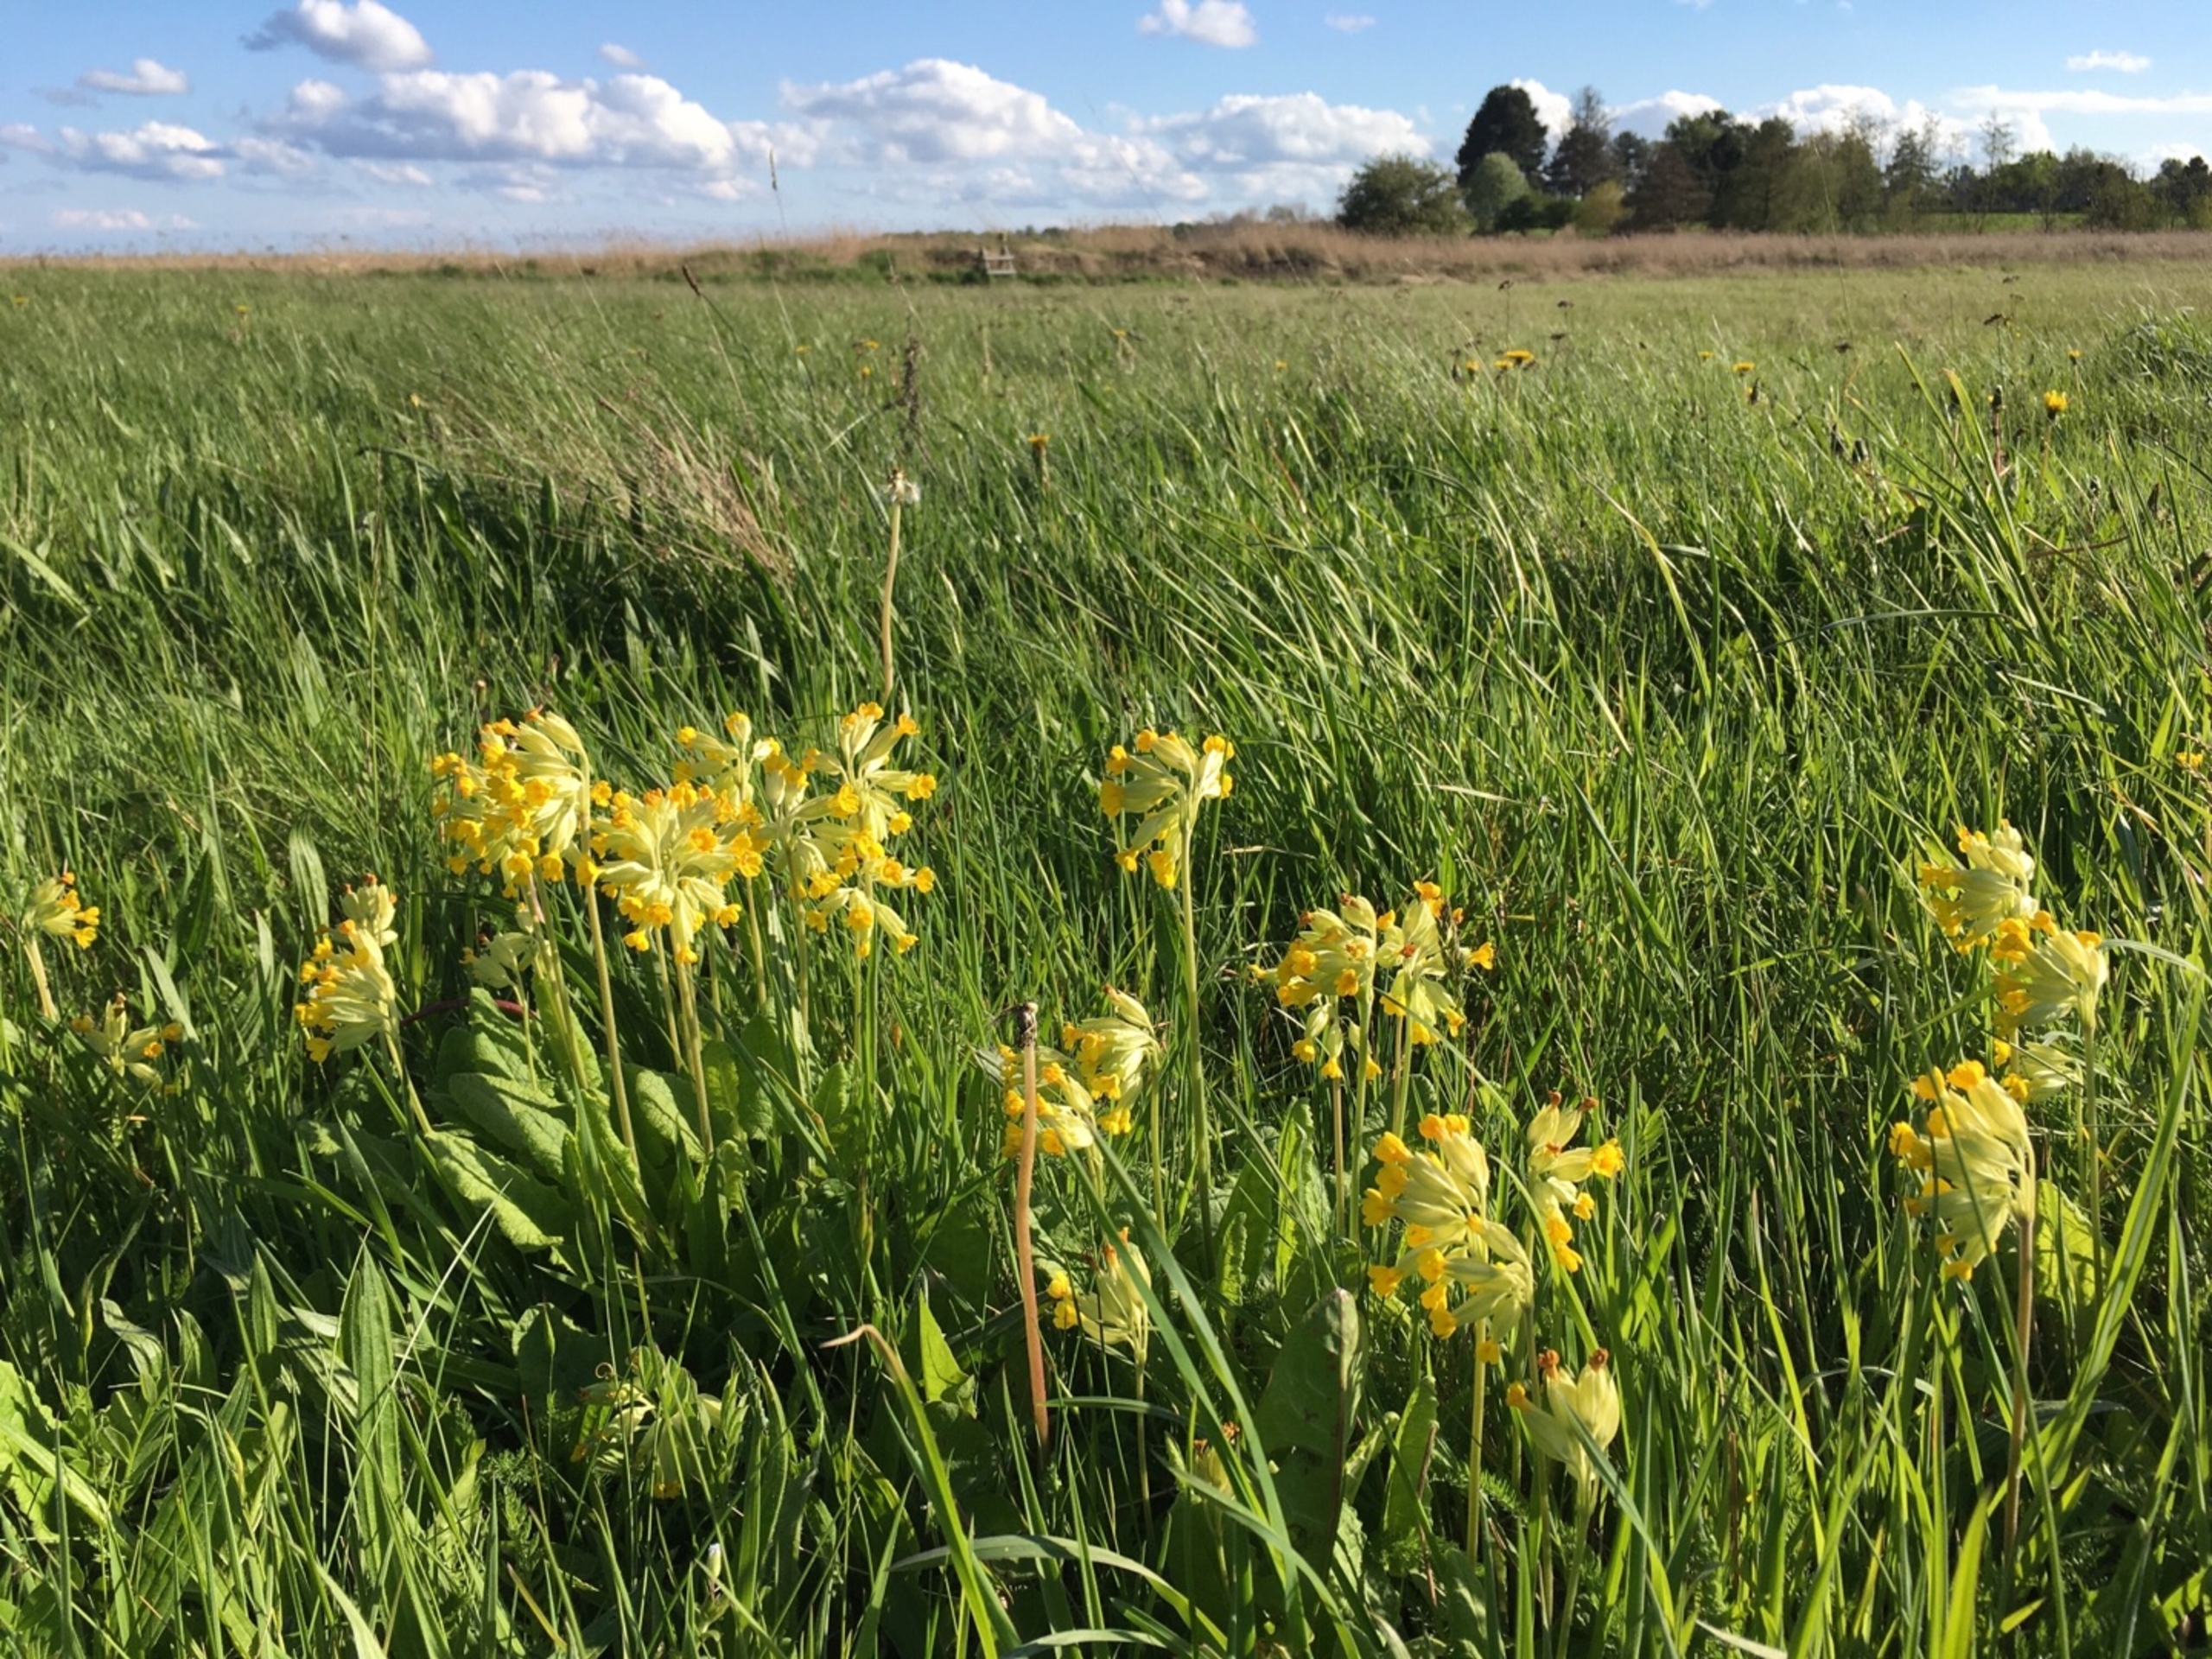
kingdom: Plantae
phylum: Tracheophyta
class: Magnoliopsida
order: Ericales
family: Primulaceae
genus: Primula
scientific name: Primula veris
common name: Hulkravet kodriver
